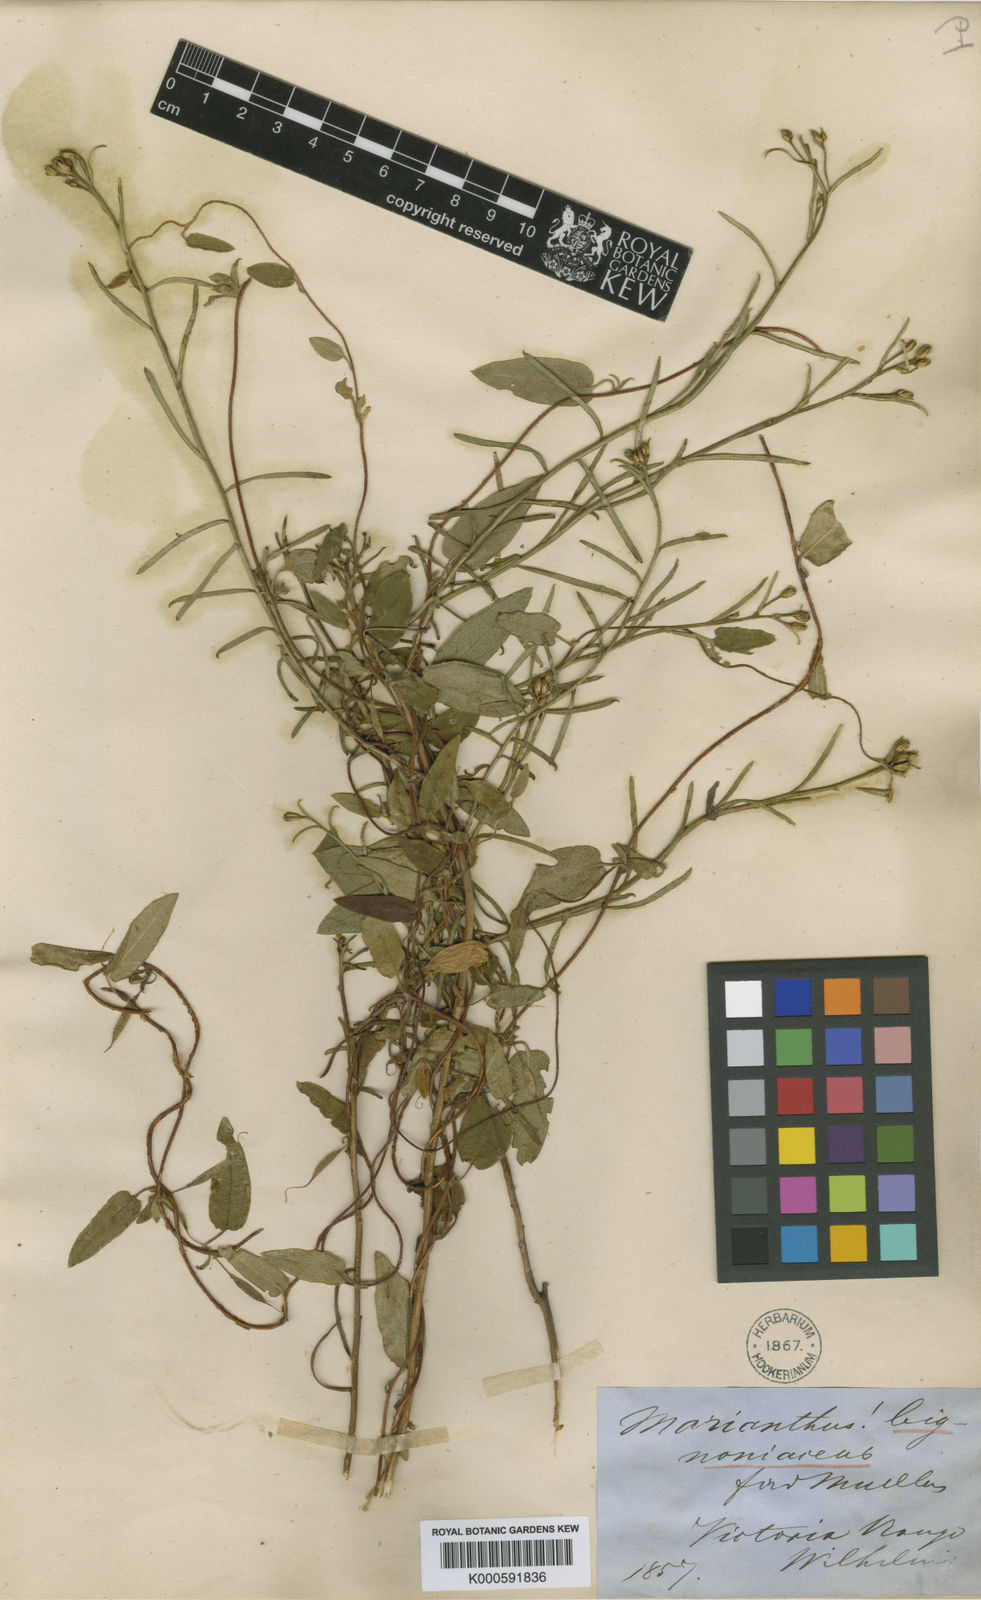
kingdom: Plantae
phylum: Tracheophyta
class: Magnoliopsida
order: Apiales
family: Pittosporaceae
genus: Marianthus
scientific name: Marianthus bignoniaceus
